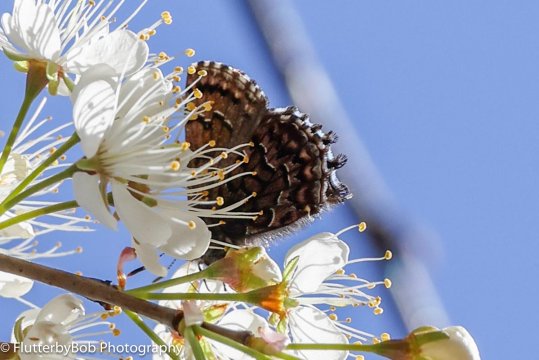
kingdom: Animalia
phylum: Arthropoda
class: Insecta
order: Lepidoptera
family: Lycaenidae
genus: Incisalia
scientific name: Incisalia niphon
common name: Eastern Pine Elfin
